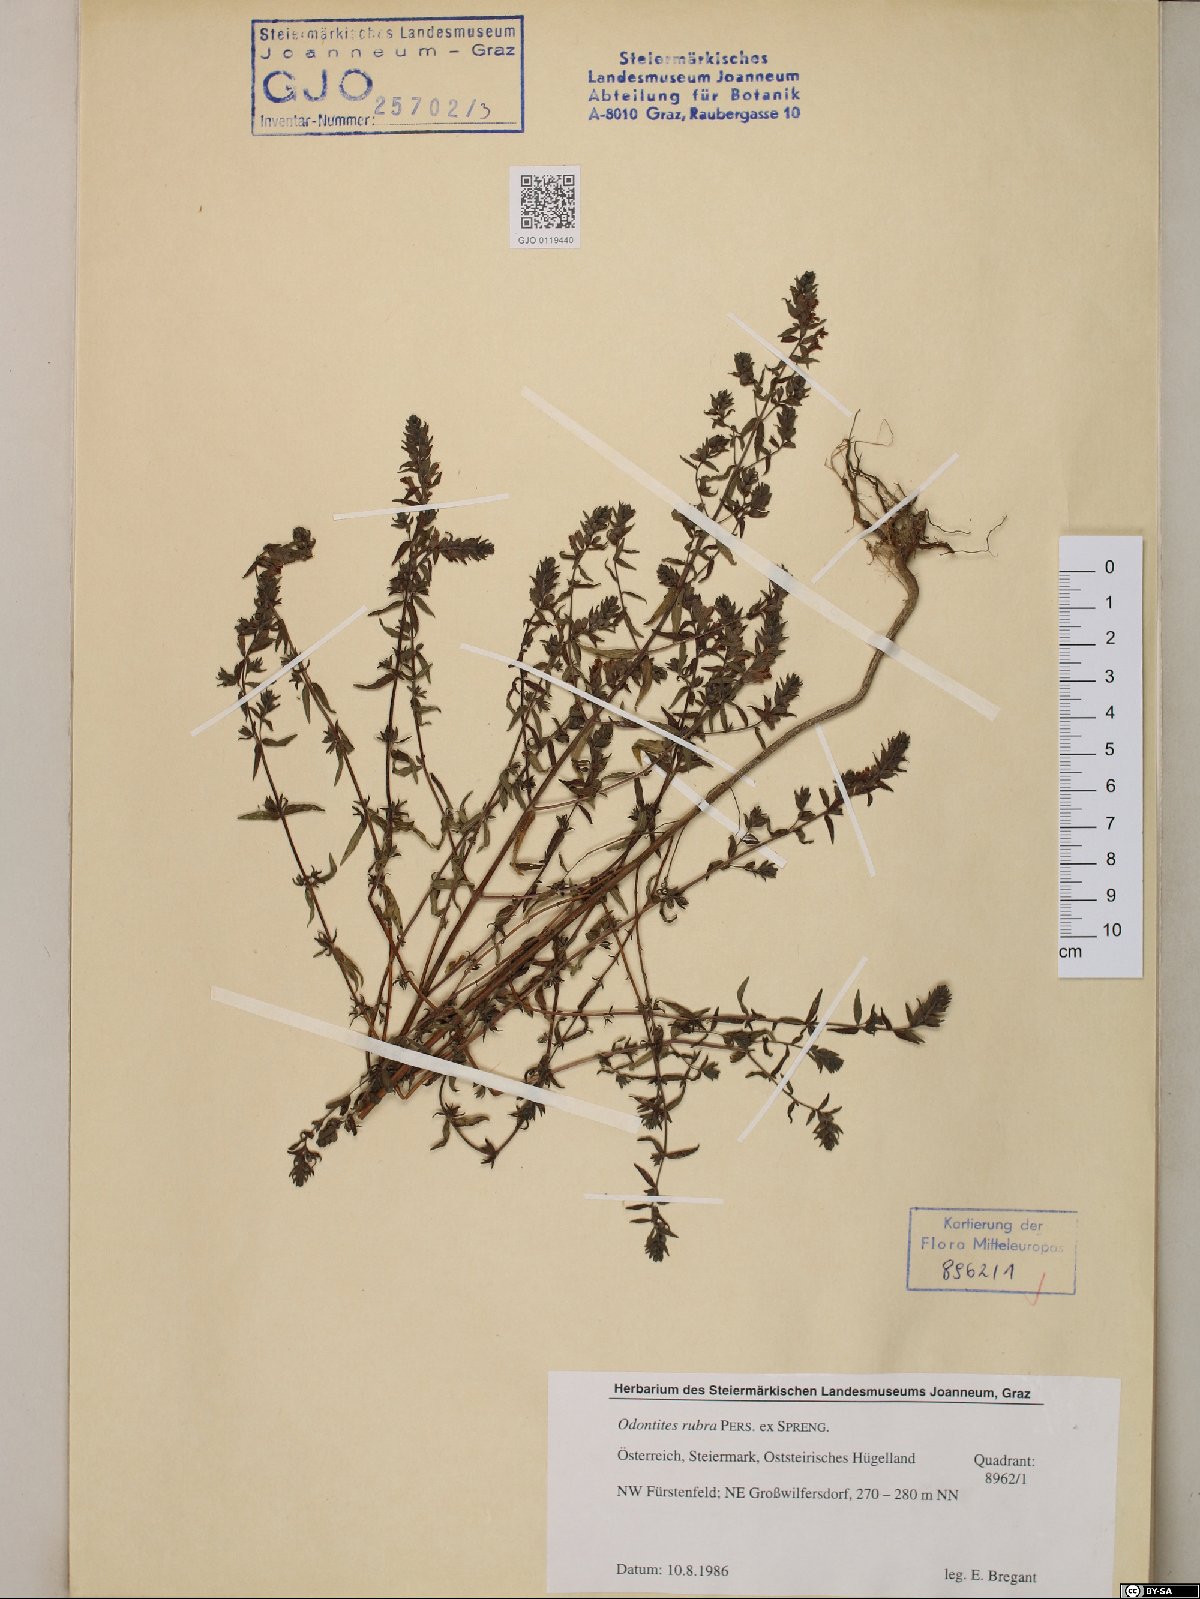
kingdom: Plantae
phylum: Tracheophyta
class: Magnoliopsida
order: Lamiales
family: Orobanchaceae
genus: Odontites
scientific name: Odontites ruber
